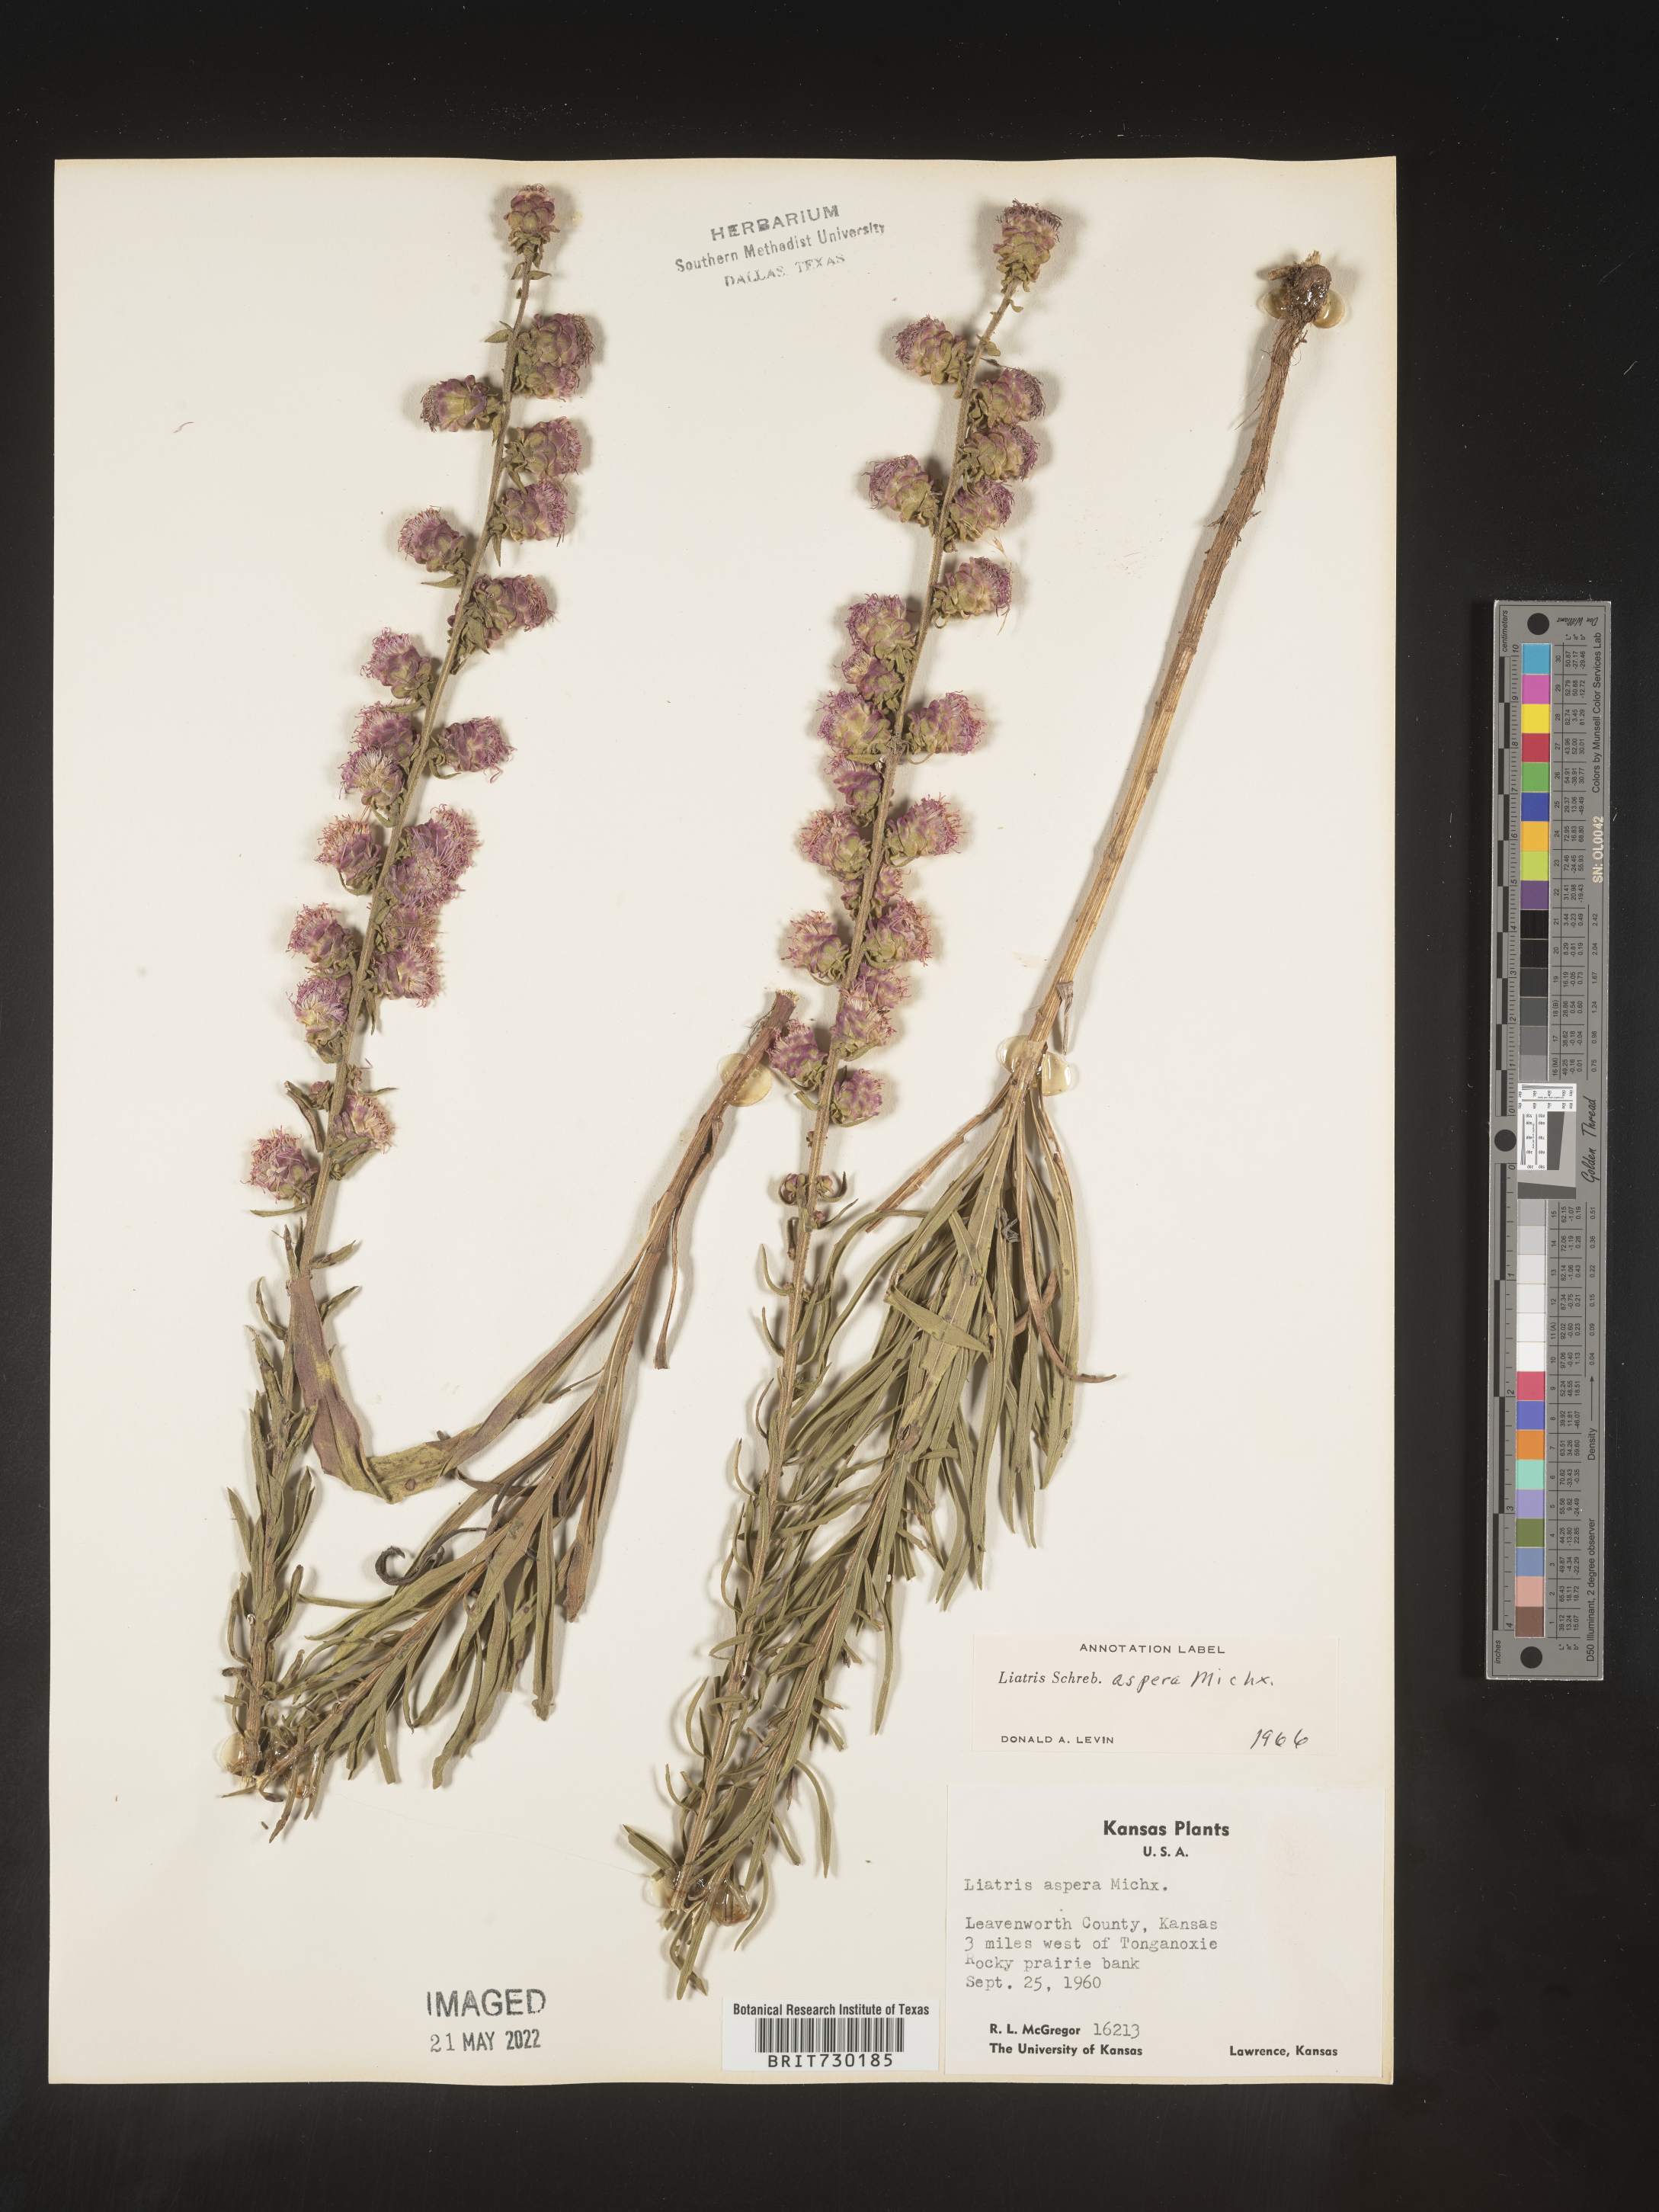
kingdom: Plantae
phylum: Tracheophyta
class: Magnoliopsida
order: Asterales
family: Asteraceae
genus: Liatris
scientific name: Liatris aspera
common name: Lacerate blazing-star
